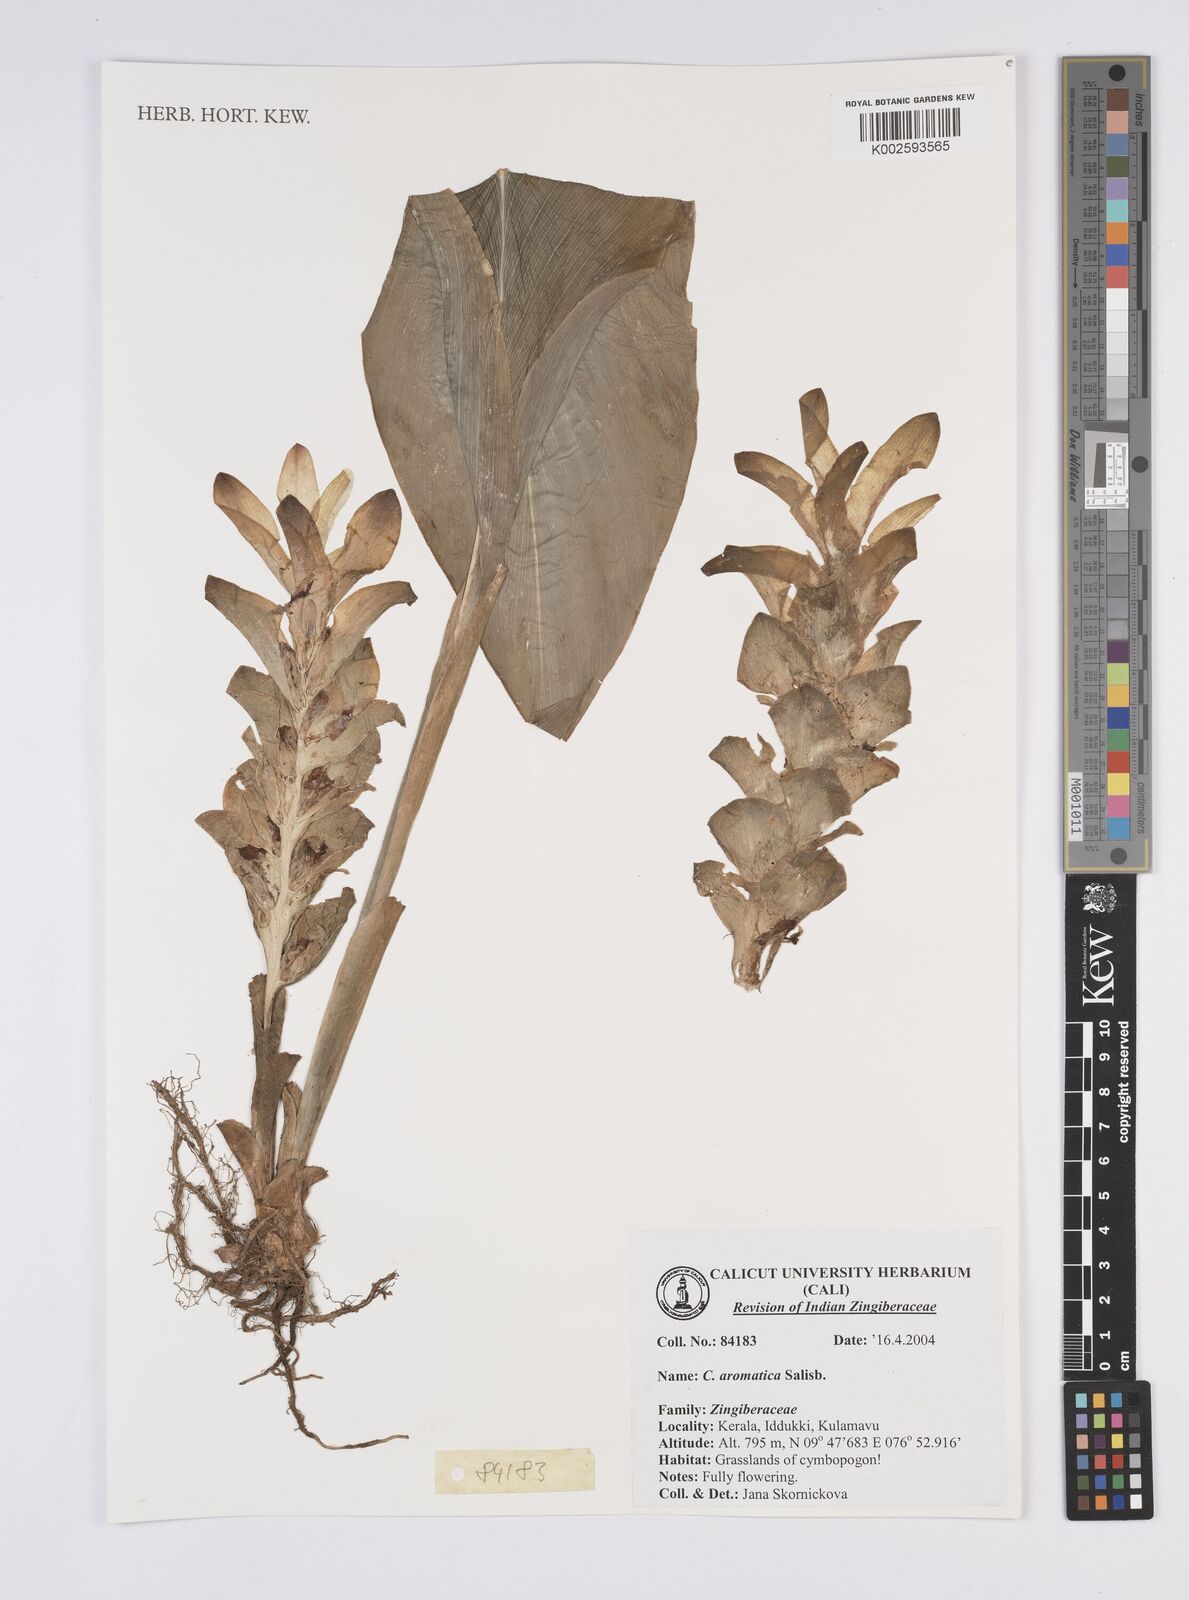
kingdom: Plantae
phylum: Tracheophyta
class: Liliopsida
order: Zingiberales
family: Zingiberaceae
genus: Curcuma
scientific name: Curcuma aromatica
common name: Wild turmeric
